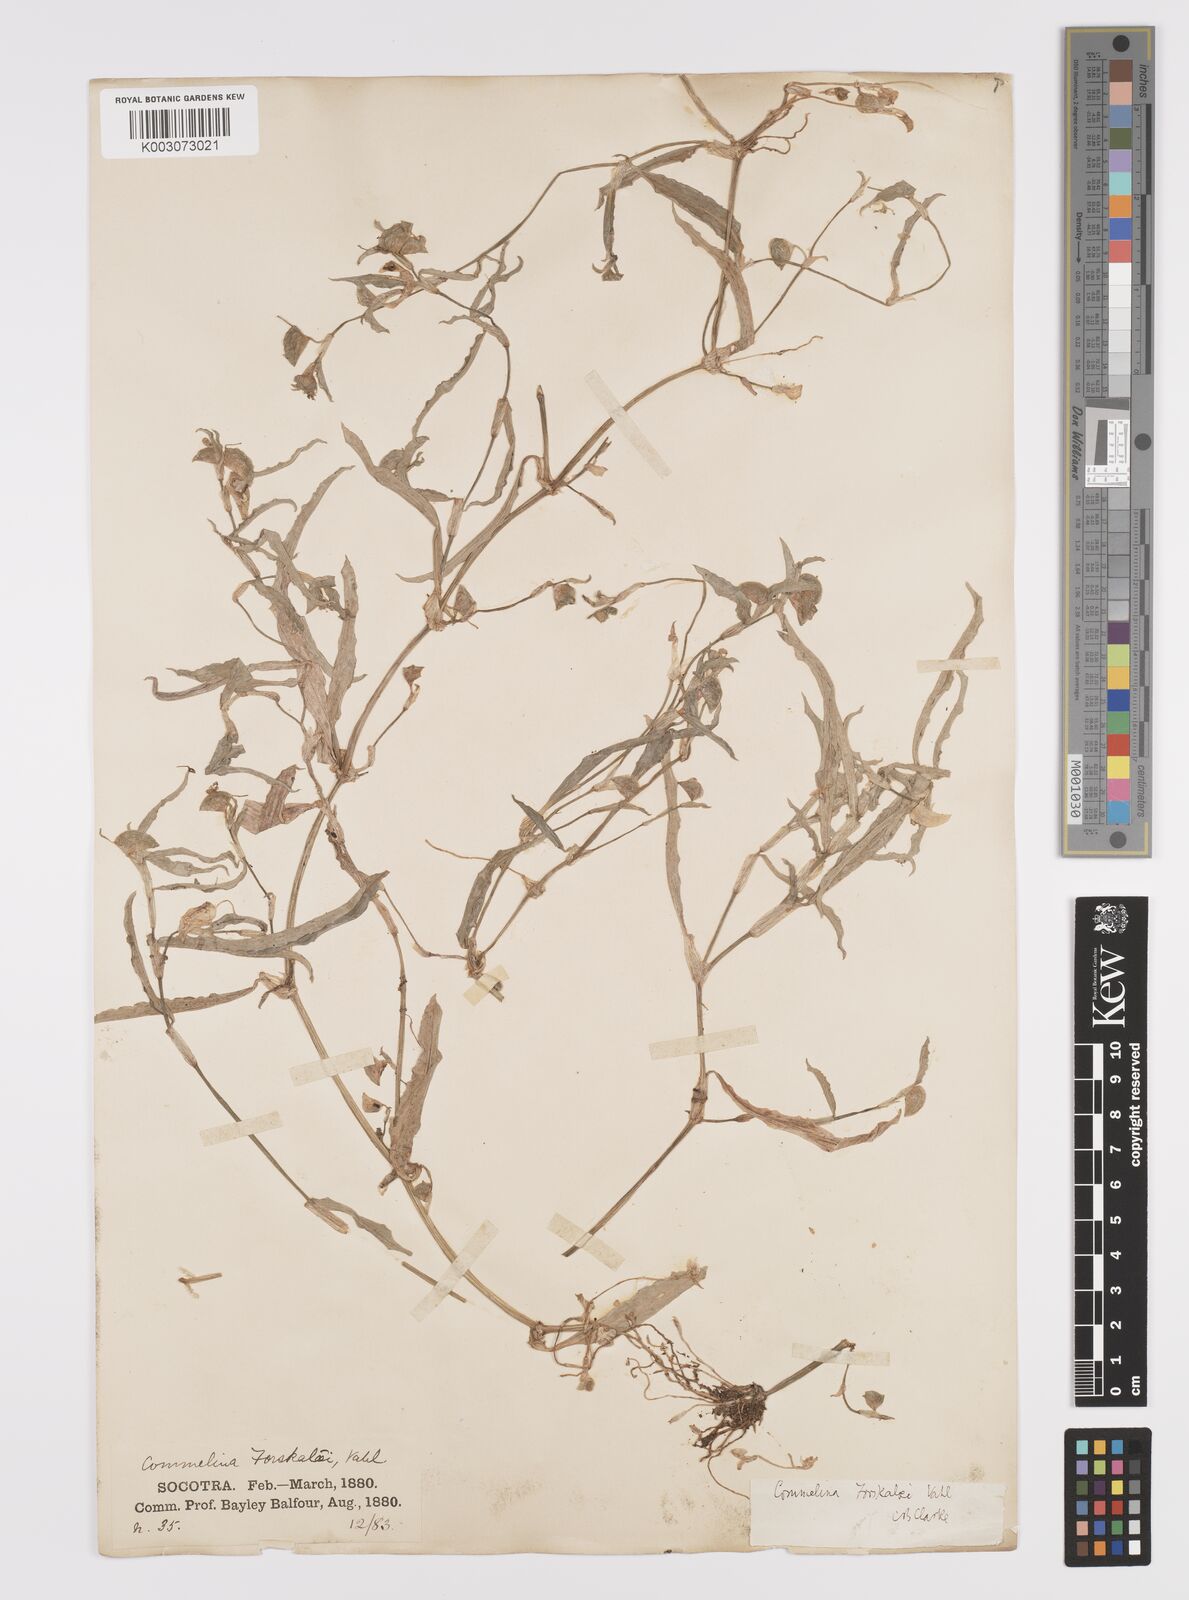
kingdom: Plantae
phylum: Tracheophyta
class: Liliopsida
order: Commelinales
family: Commelinaceae
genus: Commelina
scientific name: Commelina forskaolii
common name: Rat's ear
